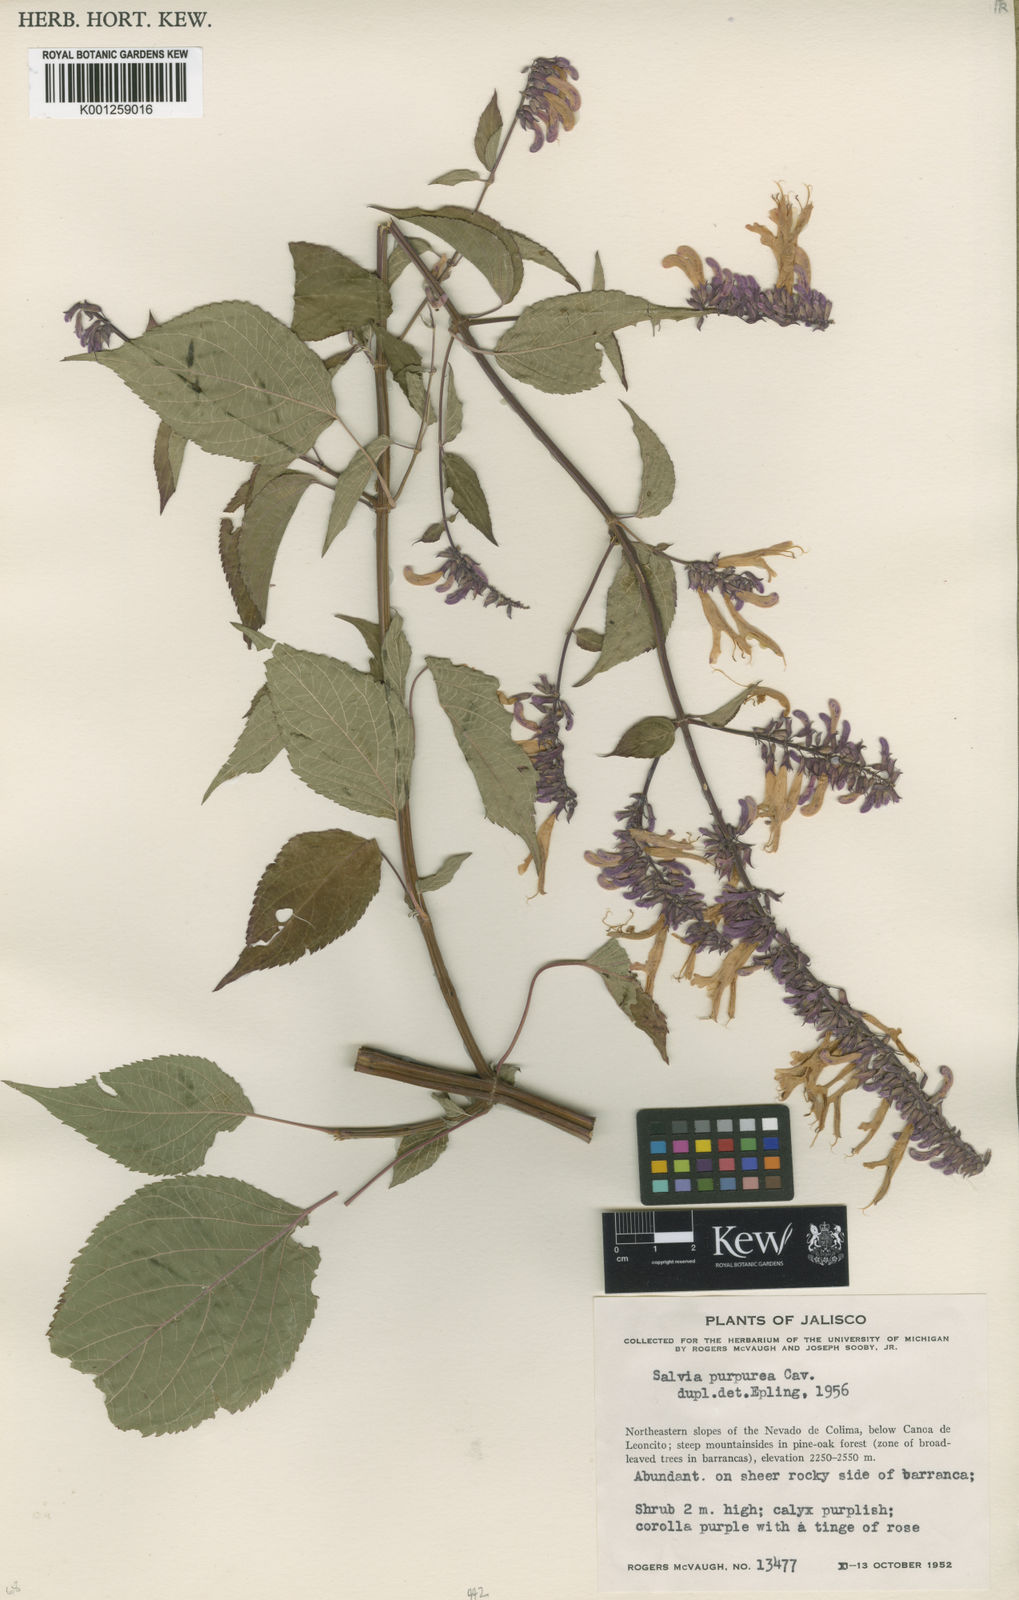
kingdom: Plantae
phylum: Tracheophyta
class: Magnoliopsida
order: Lamiales
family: Lamiaceae
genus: Salvia
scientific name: Salvia purpurea
